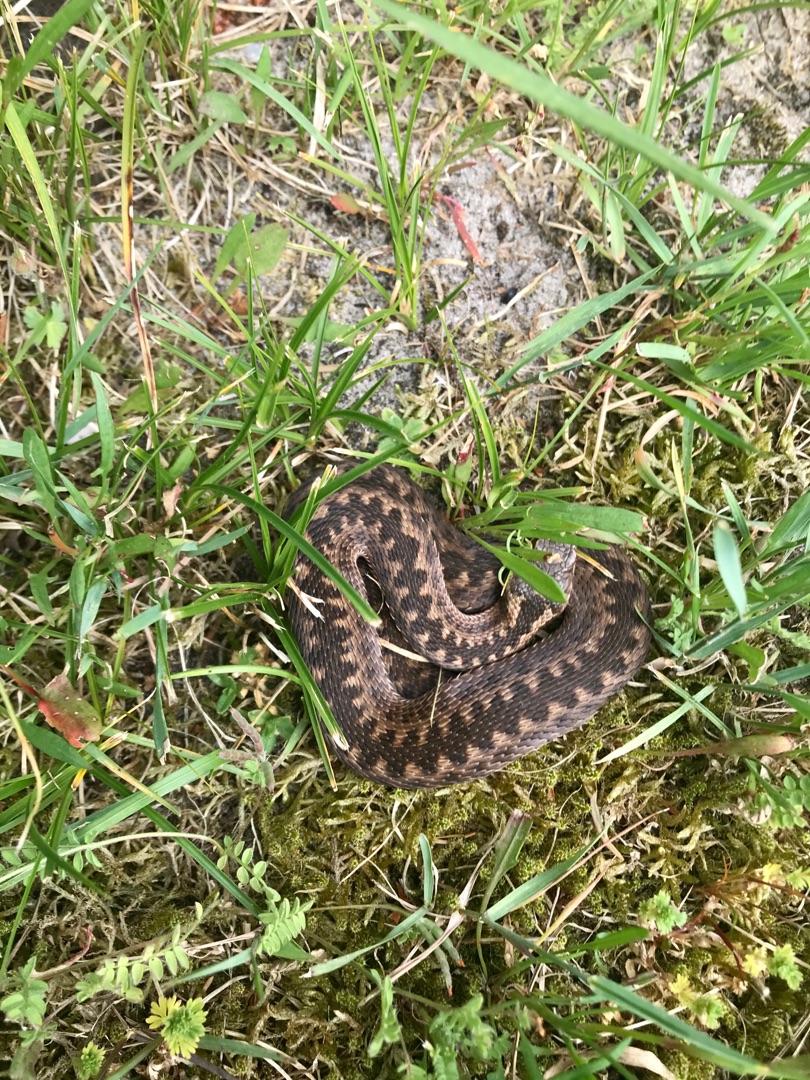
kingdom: Animalia
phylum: Chordata
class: Squamata
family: Viperidae
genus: Vipera
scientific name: Vipera berus
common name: Hugorm
